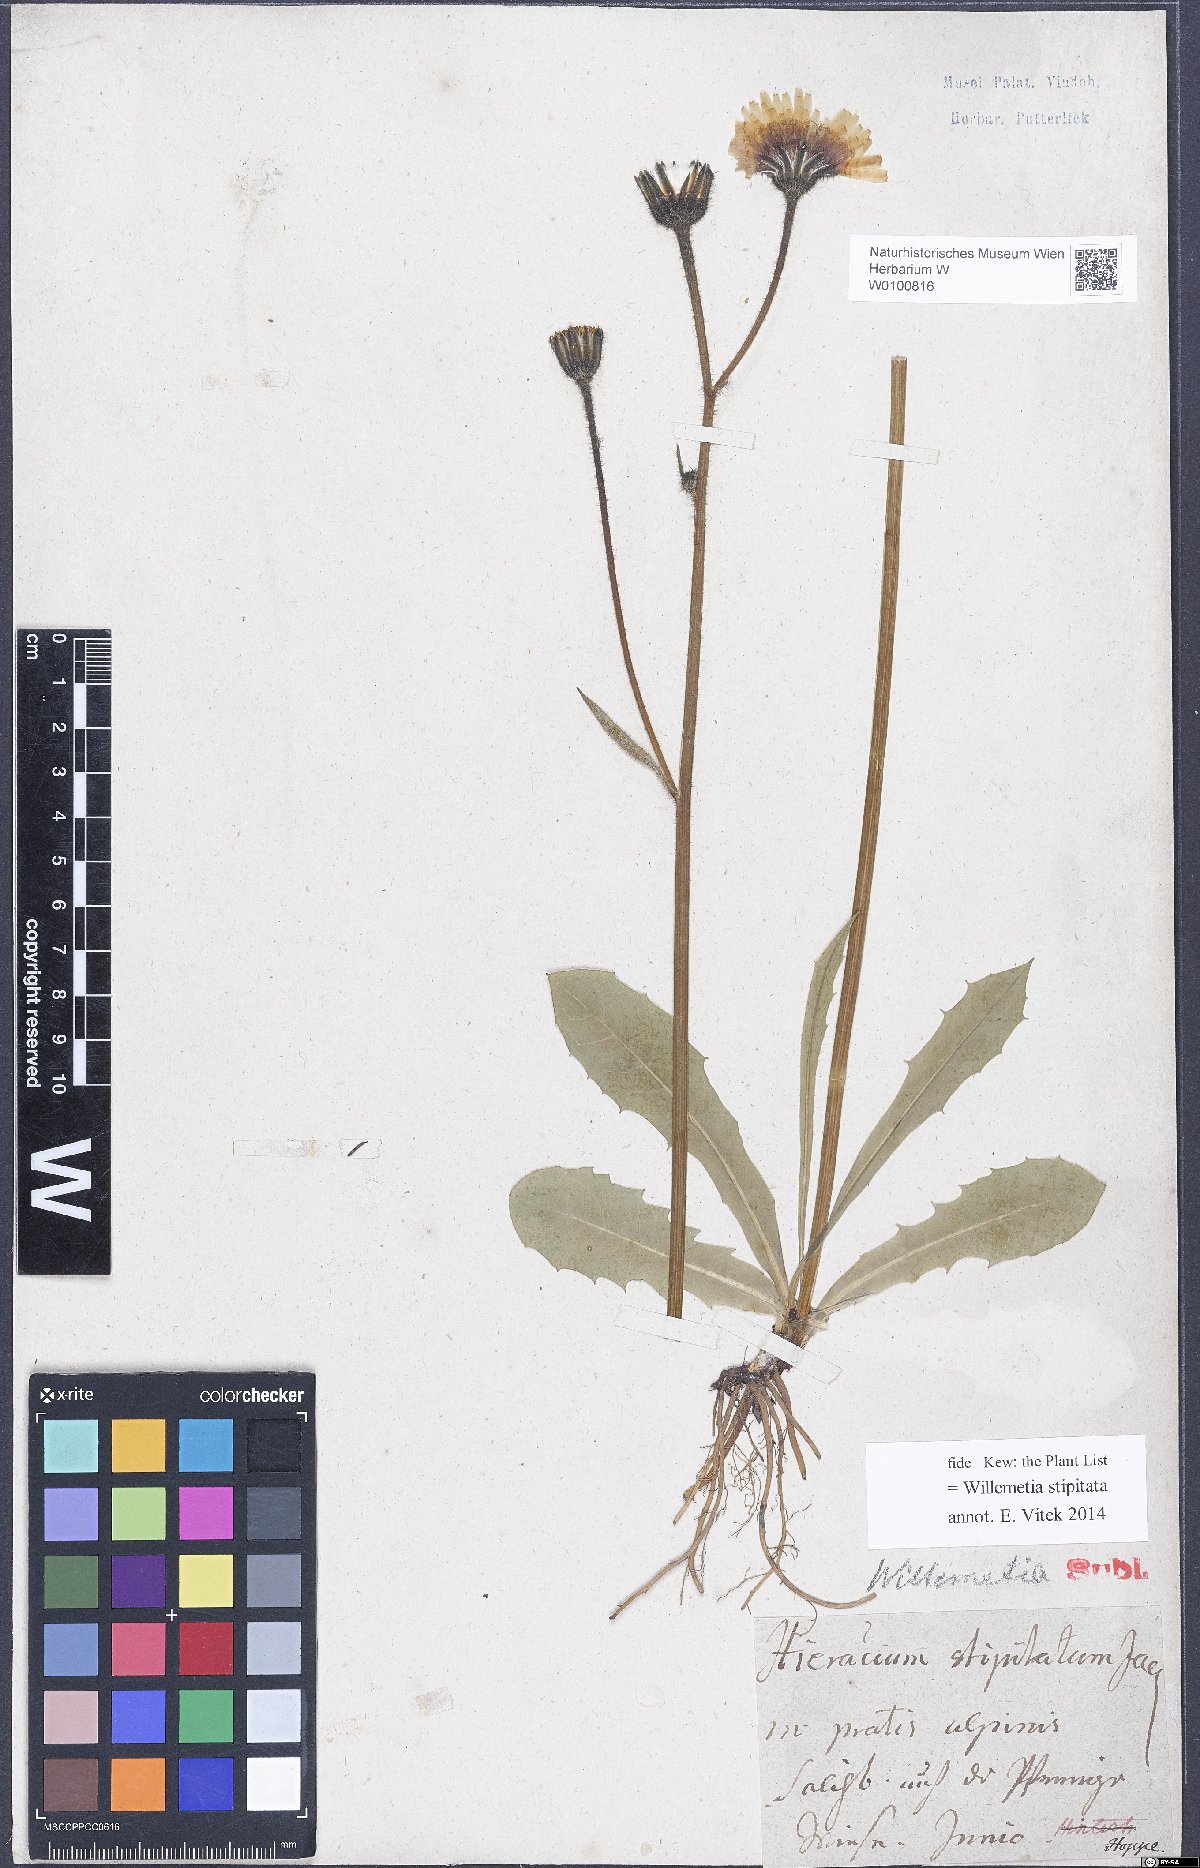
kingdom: Plantae
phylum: Tracheophyta
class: Magnoliopsida
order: Asterales
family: Asteraceae
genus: Willemetia
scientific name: Willemetia stipitata
